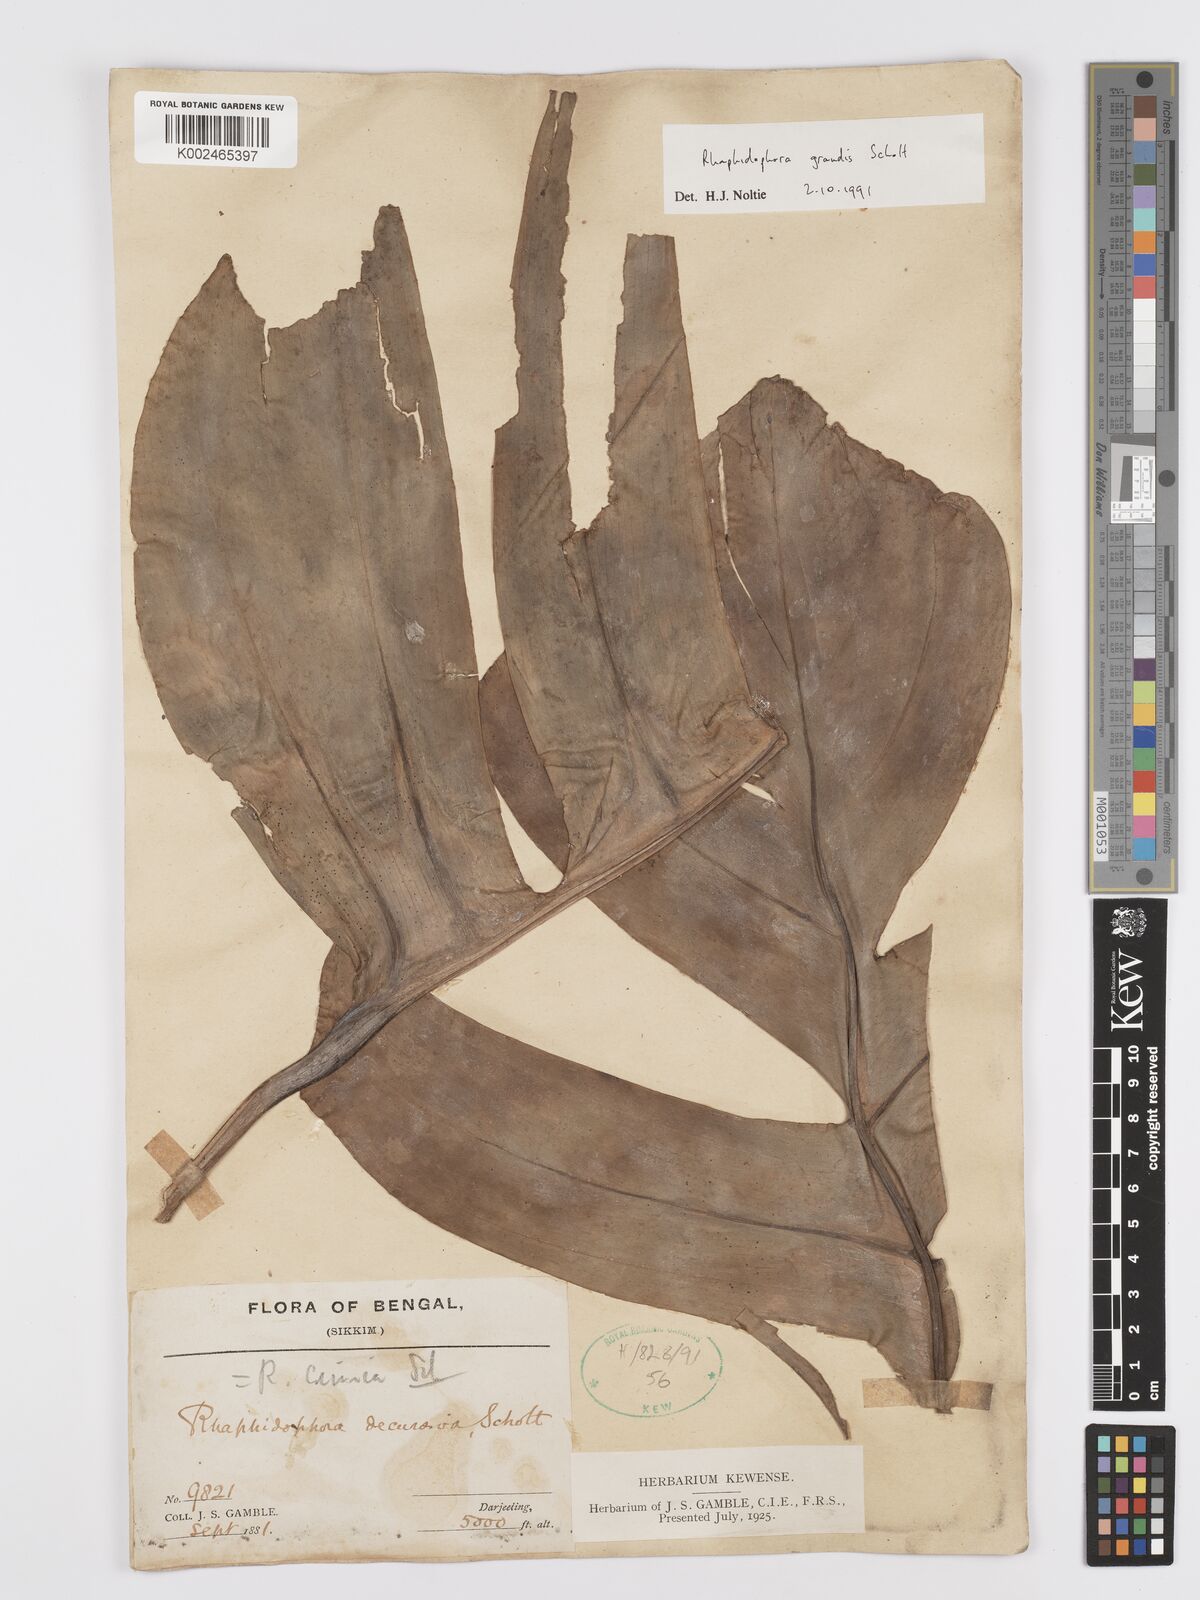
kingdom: Plantae
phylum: Tracheophyta
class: Liliopsida
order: Alismatales
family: Araceae
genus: Rhaphidophora
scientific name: Rhaphidophora decursiva
